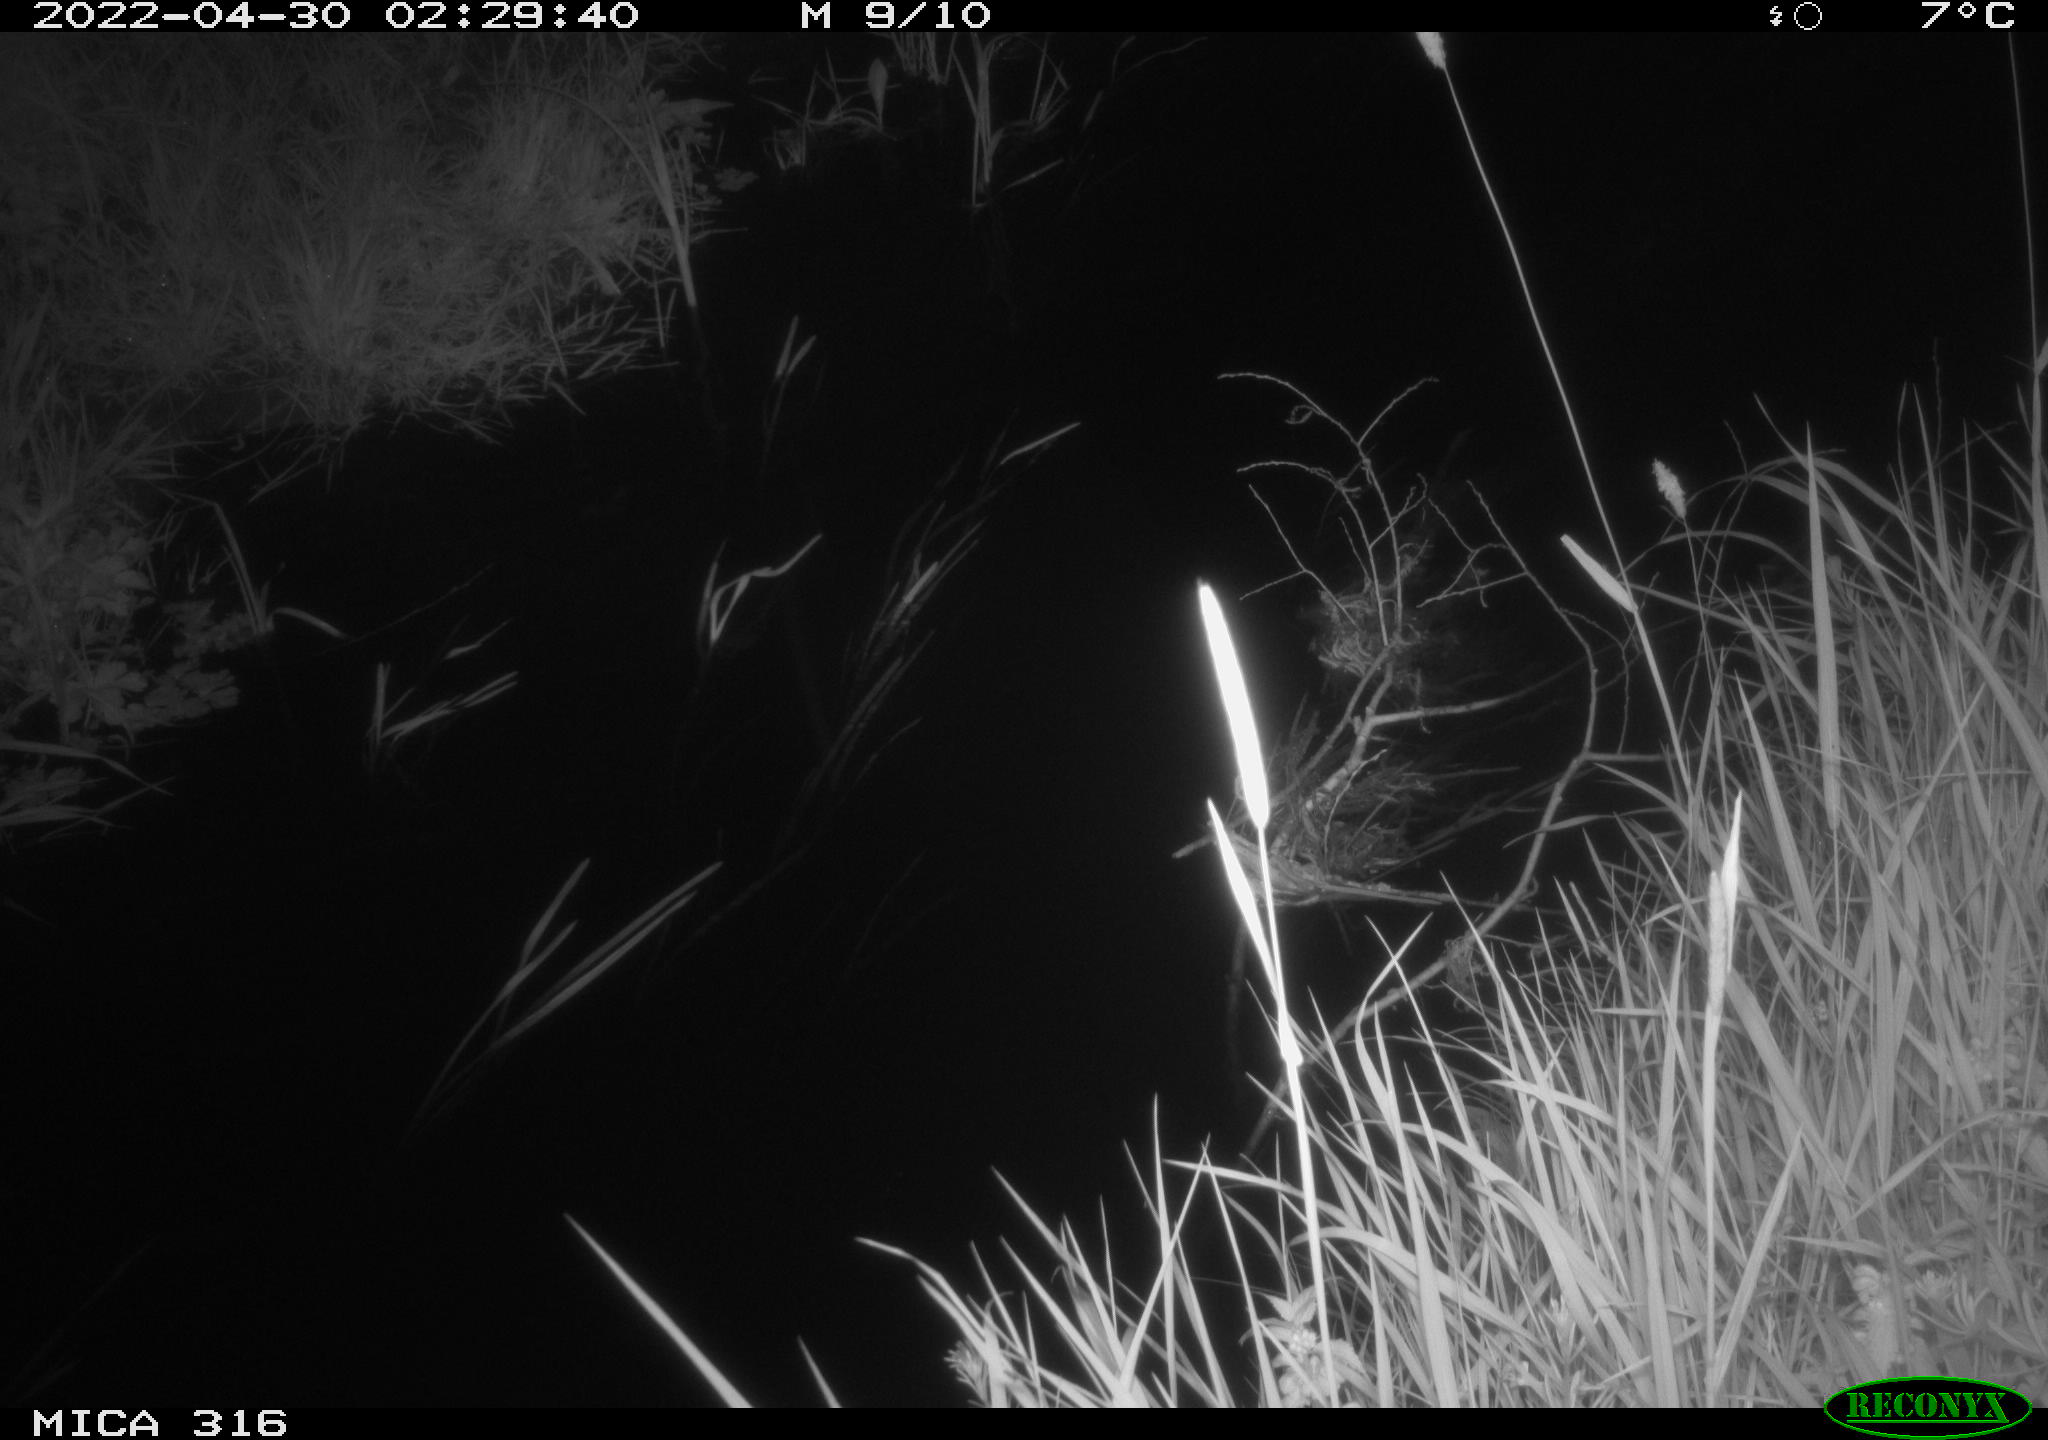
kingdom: Animalia
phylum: Chordata
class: Aves
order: Anseriformes
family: Anatidae
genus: Anas
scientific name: Anas platyrhynchos
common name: Mallard
